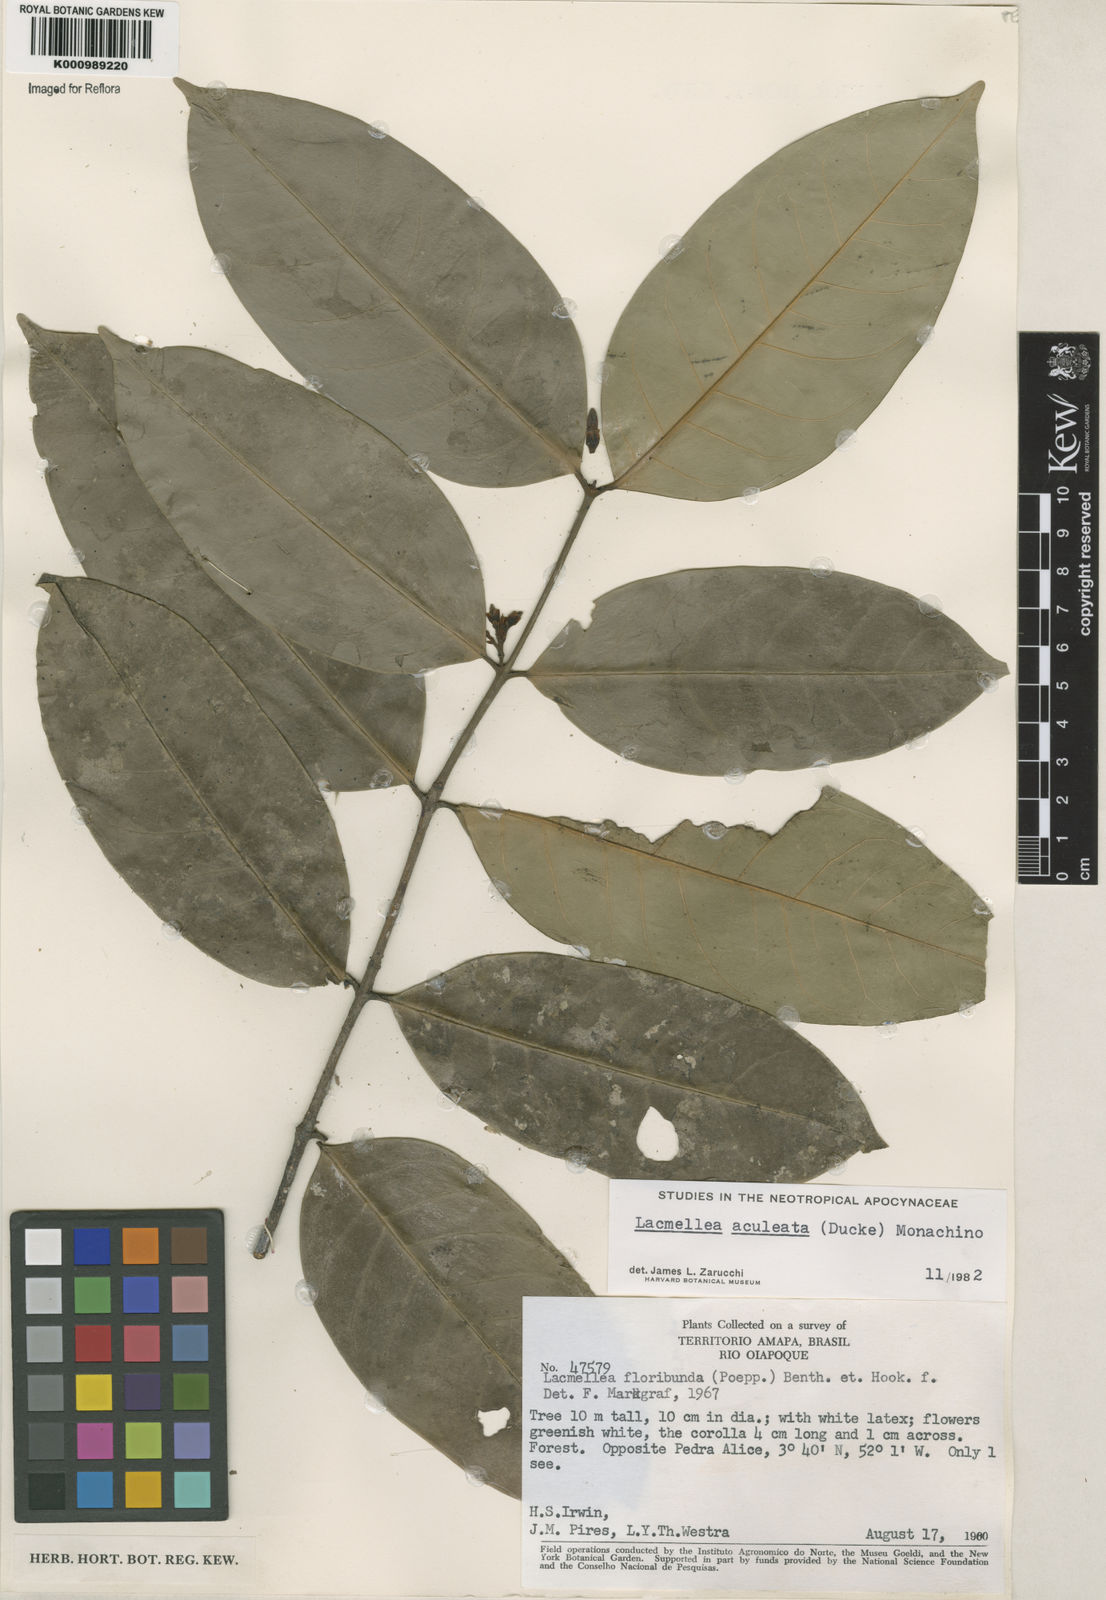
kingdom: Plantae
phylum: Tracheophyta
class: Magnoliopsida
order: Gentianales
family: Apocynaceae
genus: Lacmellea
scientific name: Lacmellea floribunda
